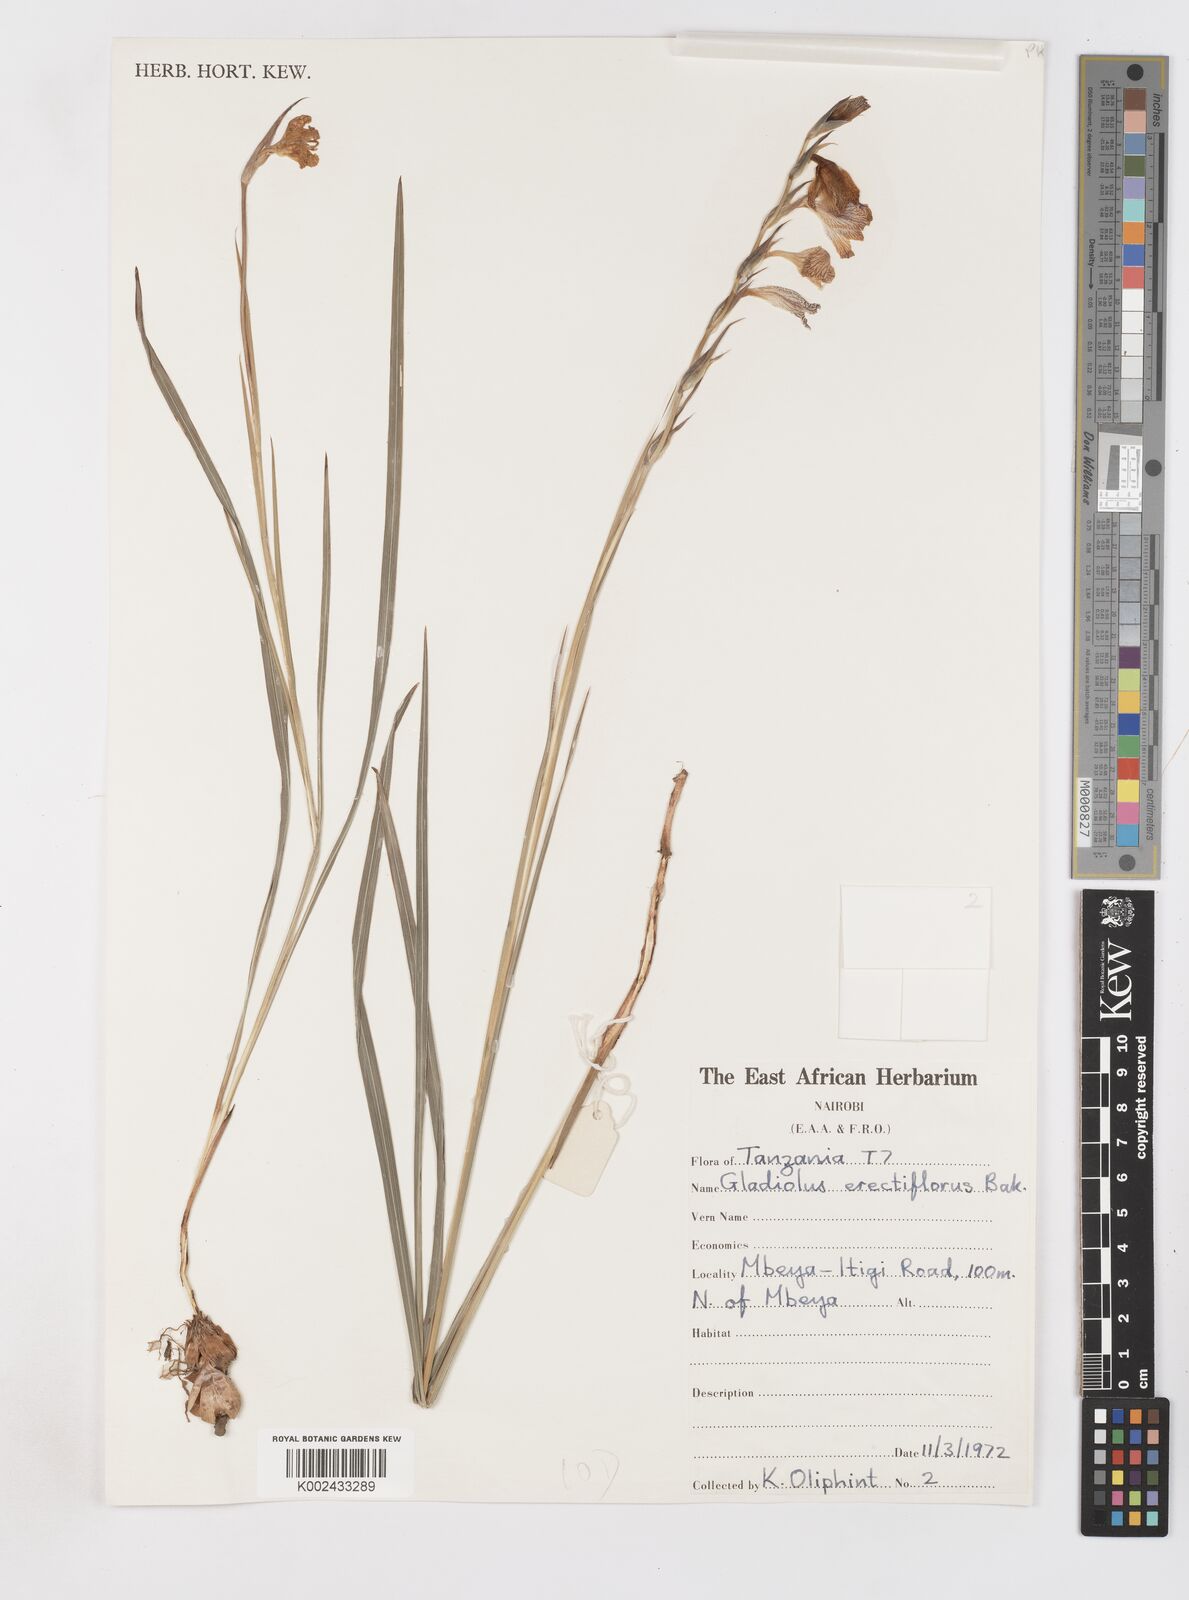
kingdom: Plantae
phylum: Tracheophyta
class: Liliopsida
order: Asparagales
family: Iridaceae
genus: Gladiolus
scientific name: Gladiolus erectiflorus
